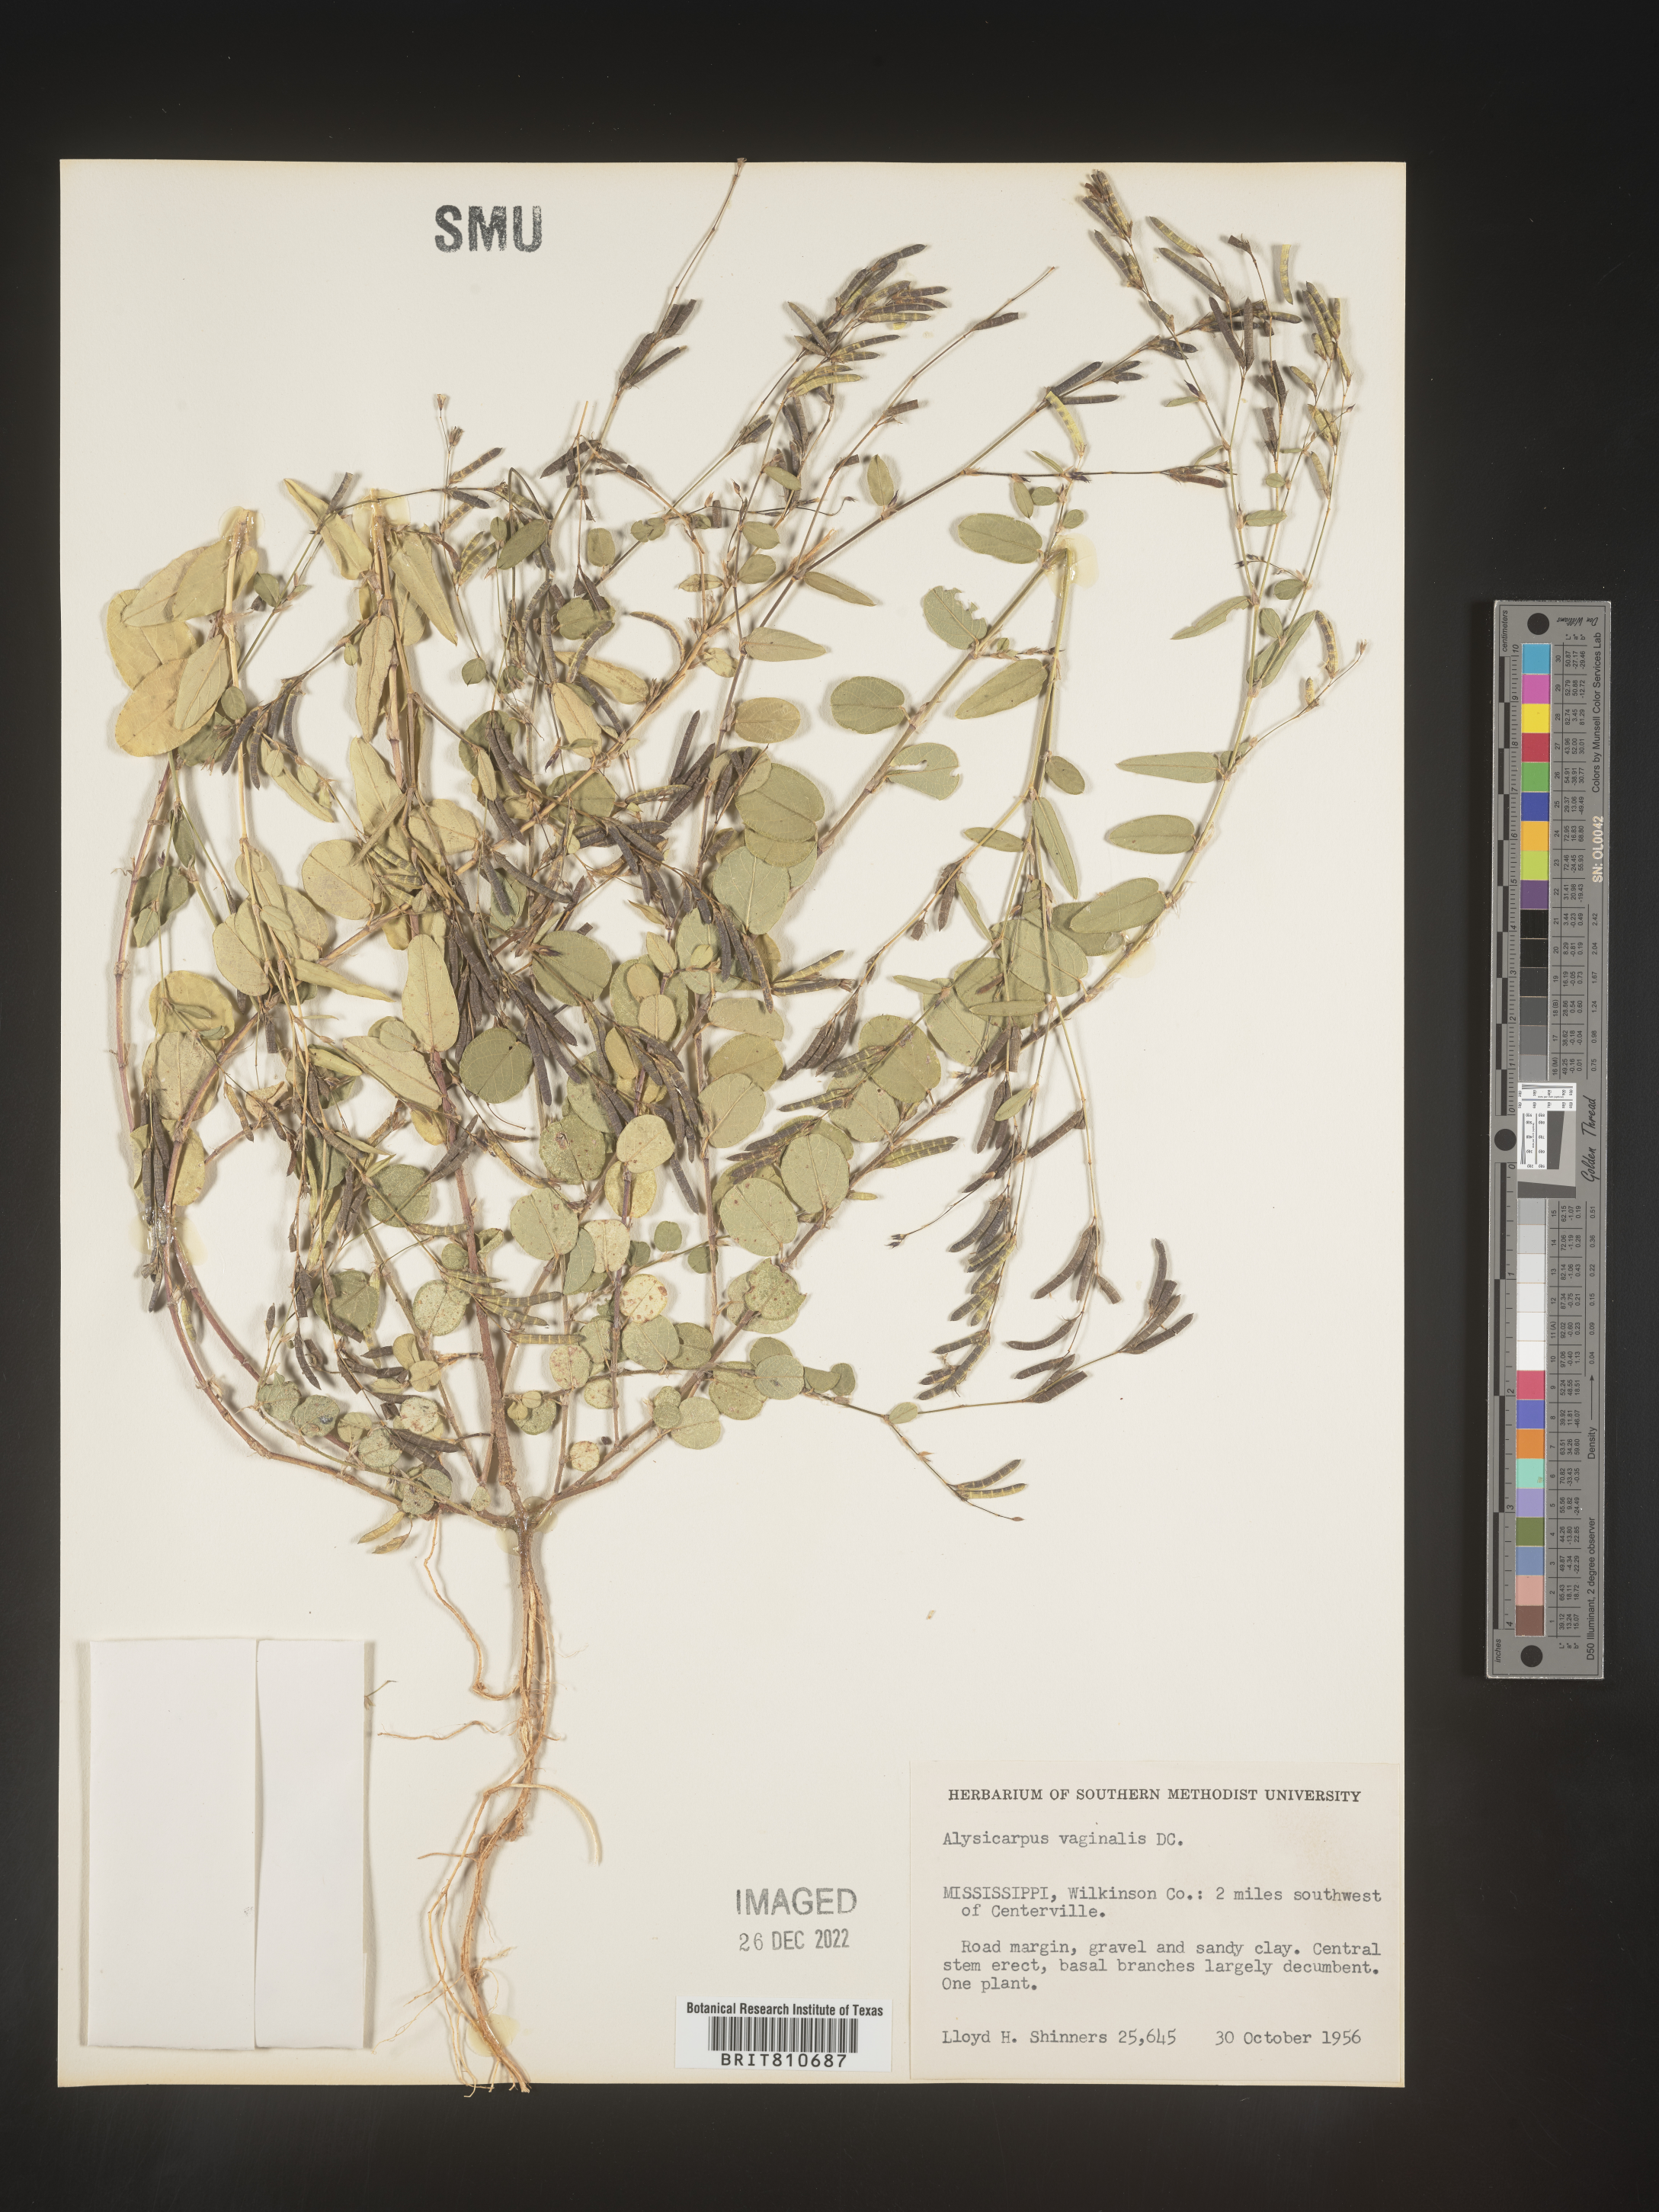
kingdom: Plantae
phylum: Tracheophyta
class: Magnoliopsida
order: Fabales
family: Fabaceae
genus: Alysicarpus
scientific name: Alysicarpus
